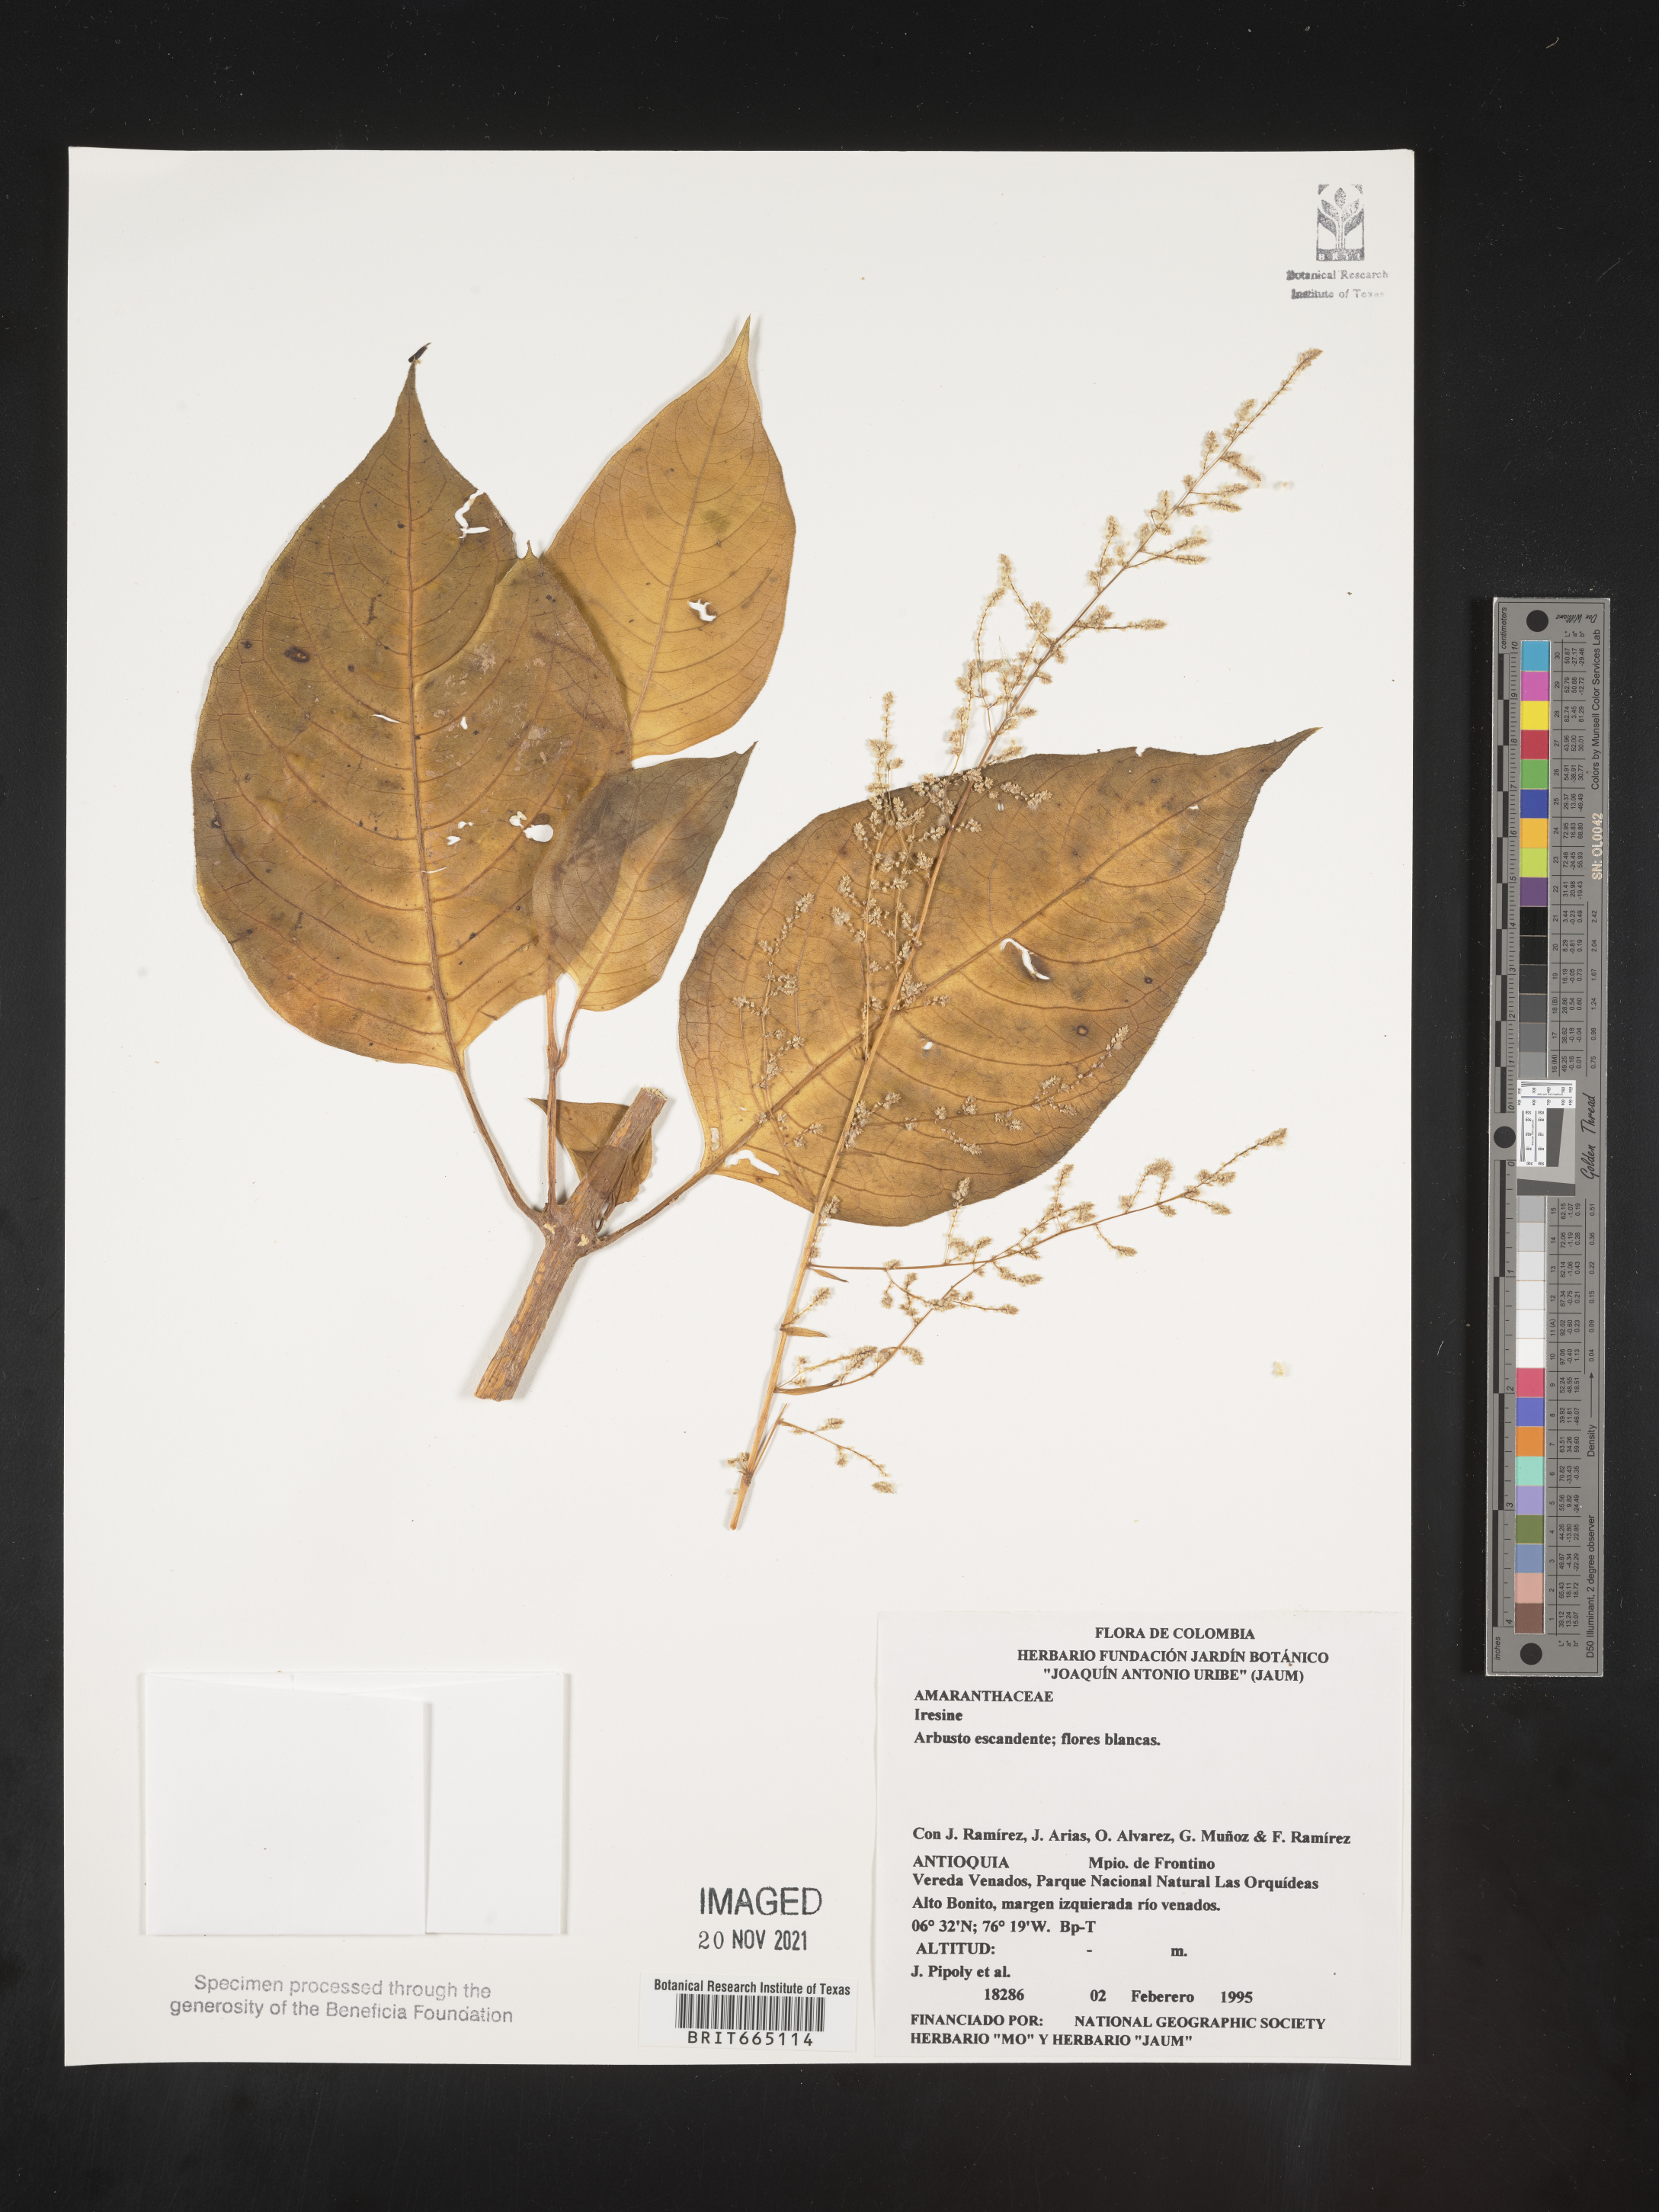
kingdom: Plantae
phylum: Tracheophyta
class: Magnoliopsida
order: Caryophyllales
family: Amaranthaceae
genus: Iresine
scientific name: Iresine
